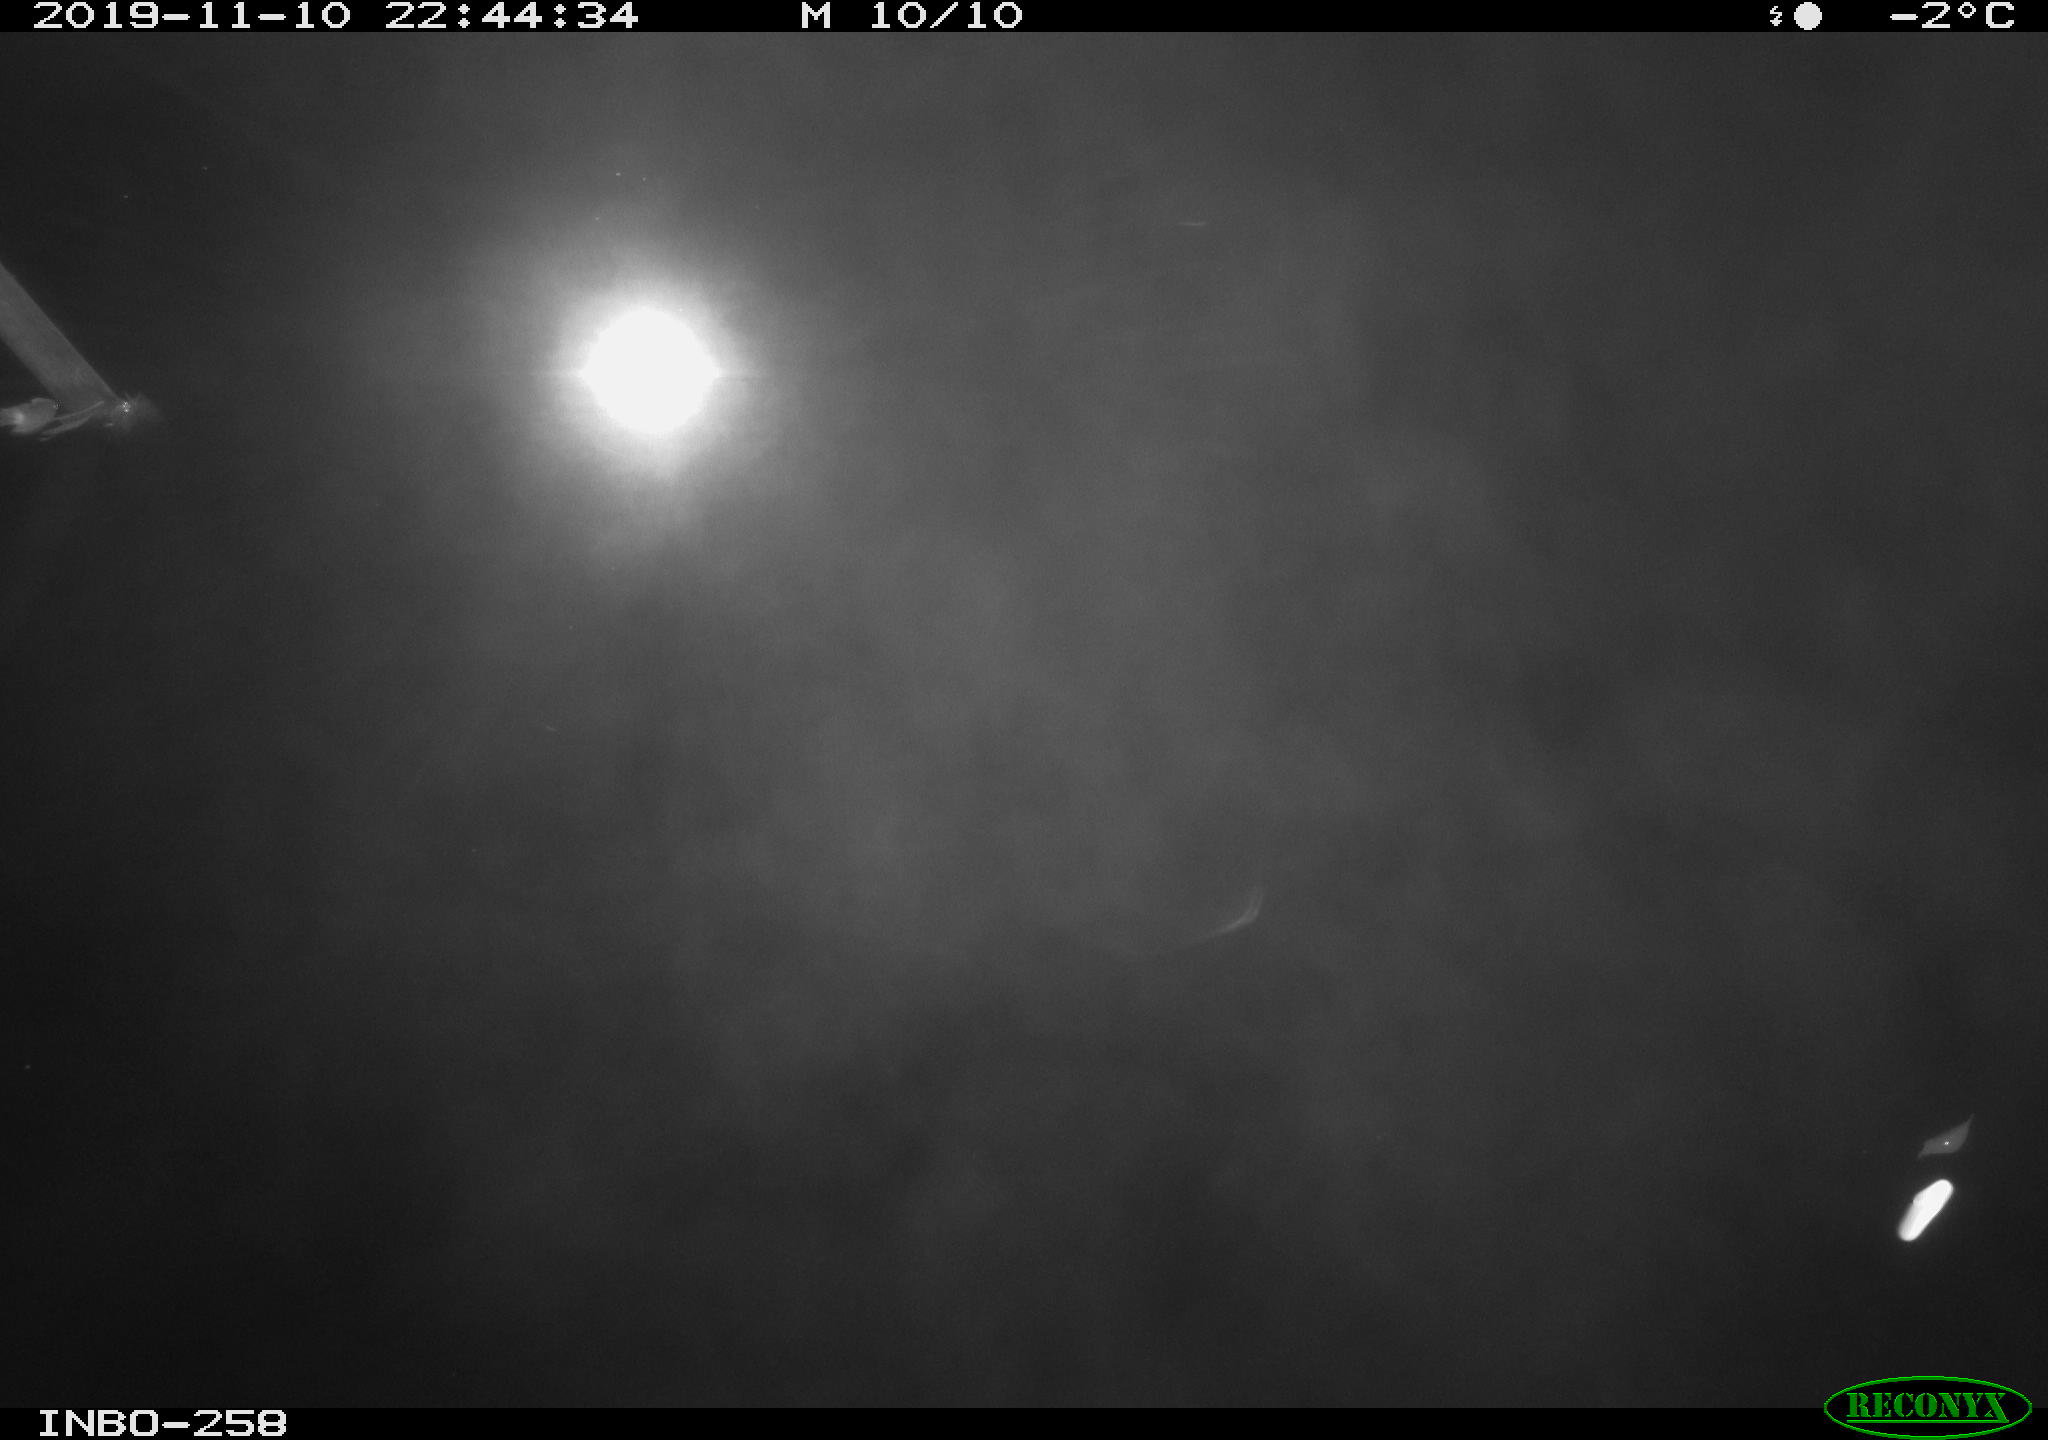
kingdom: Animalia
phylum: Chordata
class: Aves
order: Anseriformes
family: Anatidae
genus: Anas
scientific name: Anas platyrhynchos
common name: Mallard
